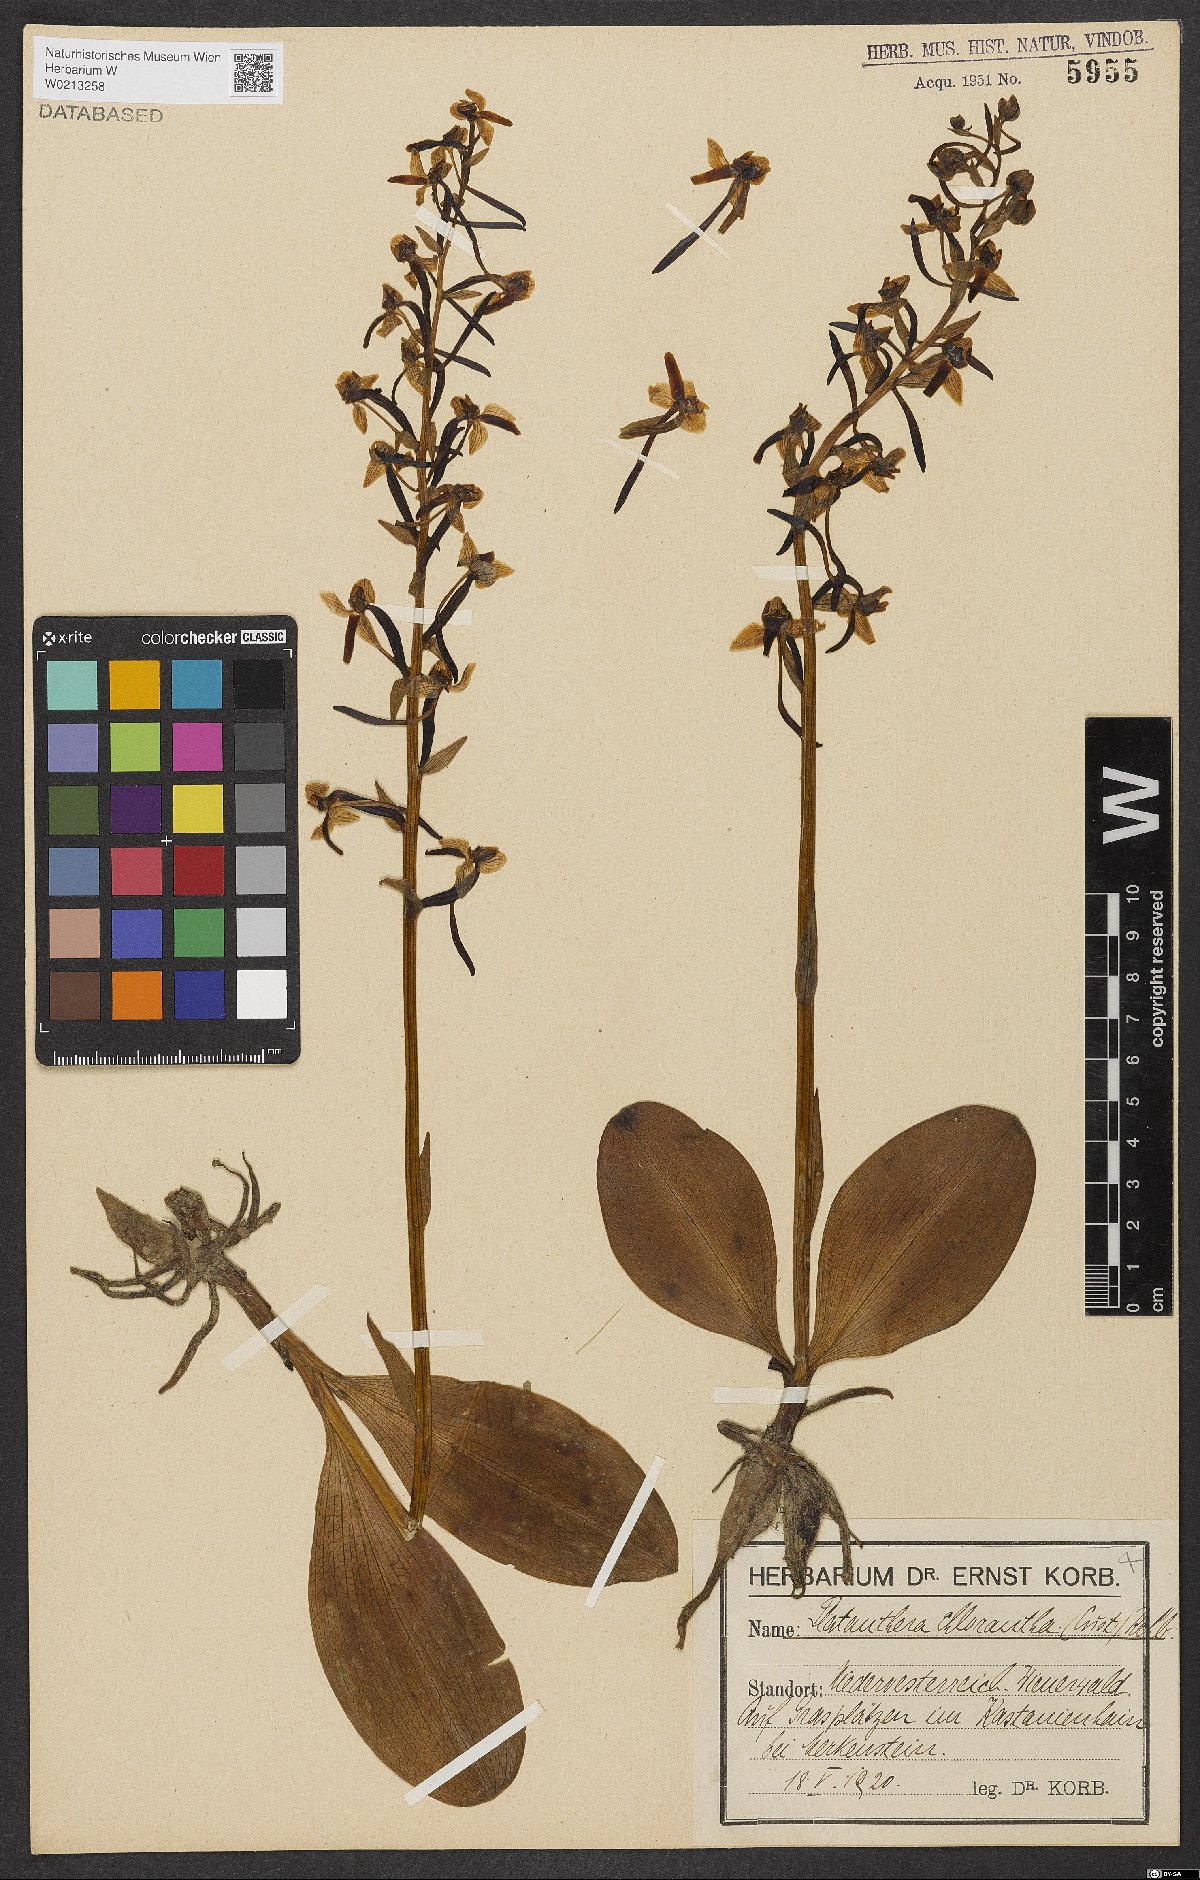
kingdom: Plantae
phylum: Tracheophyta
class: Liliopsida
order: Asparagales
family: Orchidaceae
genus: Platanthera
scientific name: Platanthera chlorantha
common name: Greater butterfly-orchid
